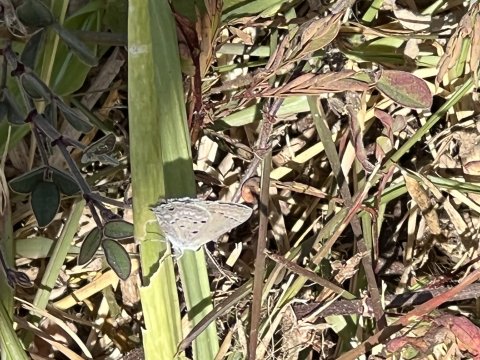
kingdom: Animalia
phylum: Arthropoda
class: Insecta
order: Lepidoptera
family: Lycaenidae
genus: Strymon
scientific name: Strymon bubastus
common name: Disjunct Scrub-Hairstreak
